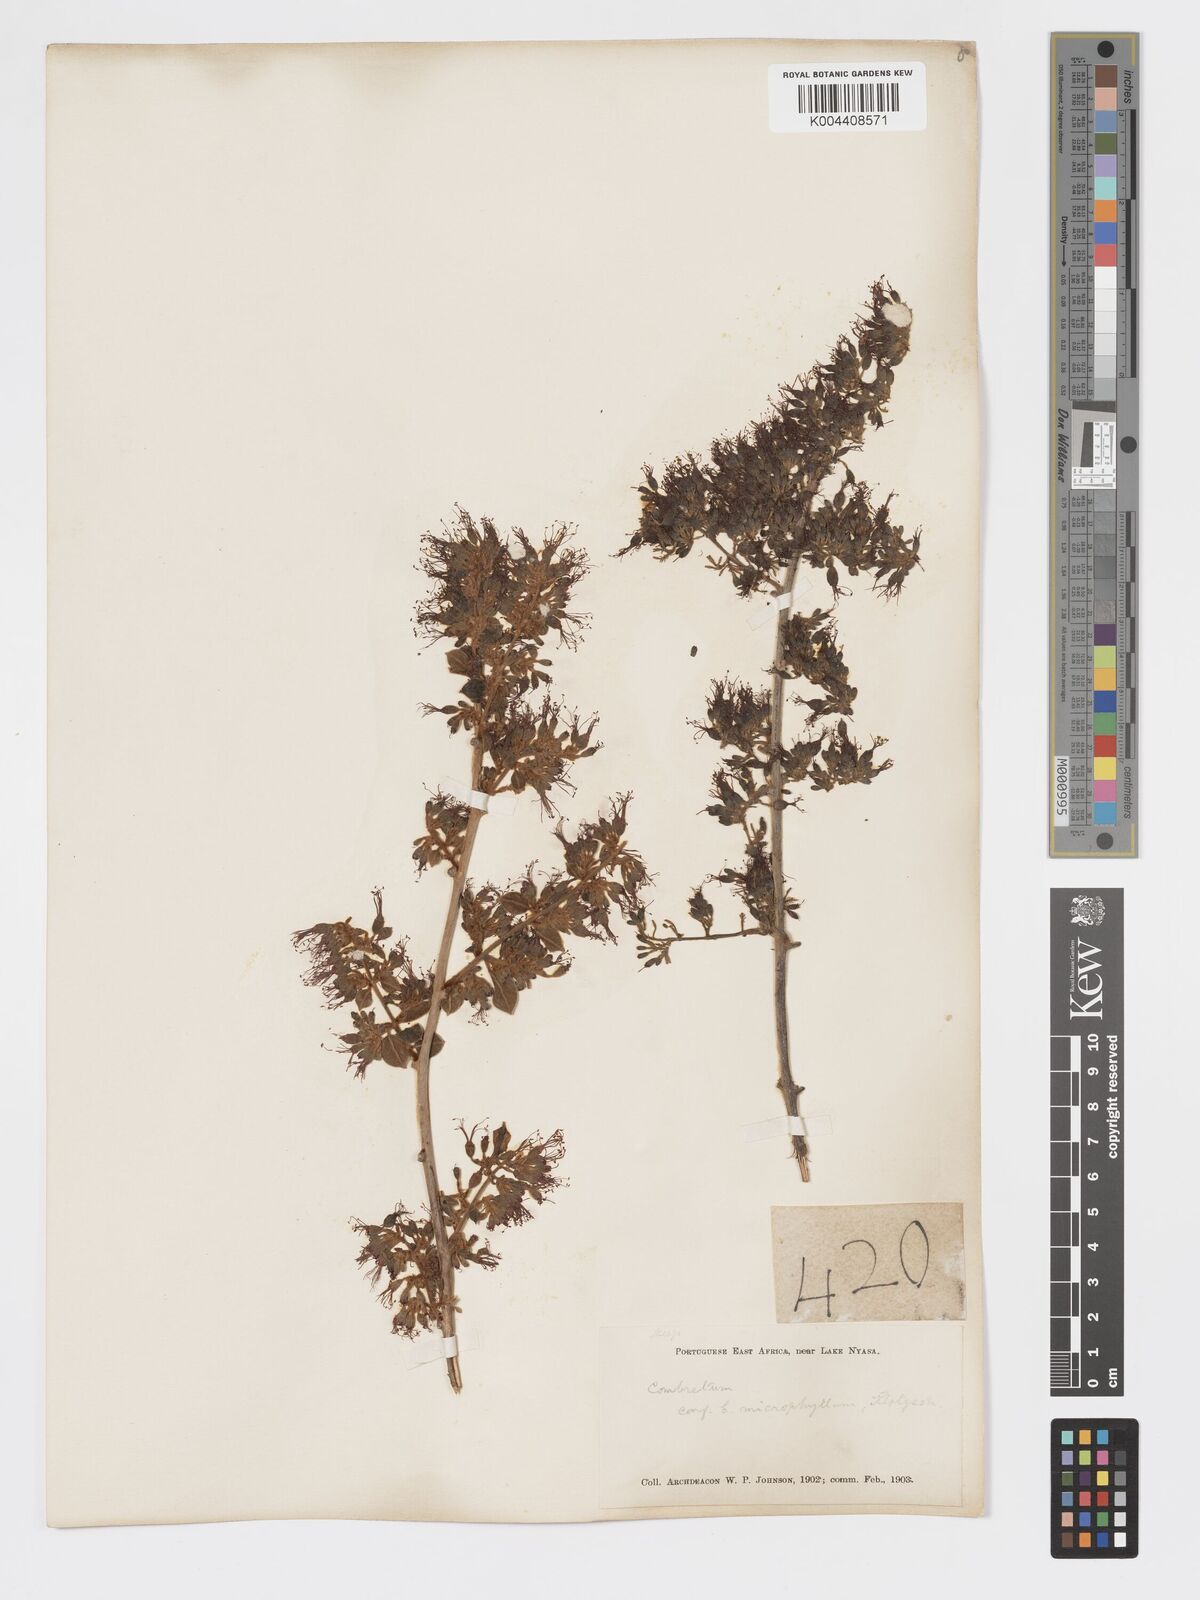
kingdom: Plantae
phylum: Tracheophyta
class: Magnoliopsida
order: Myrtales
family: Combretaceae
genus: Combretum
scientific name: Combretum microphyllum
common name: Burningbush
